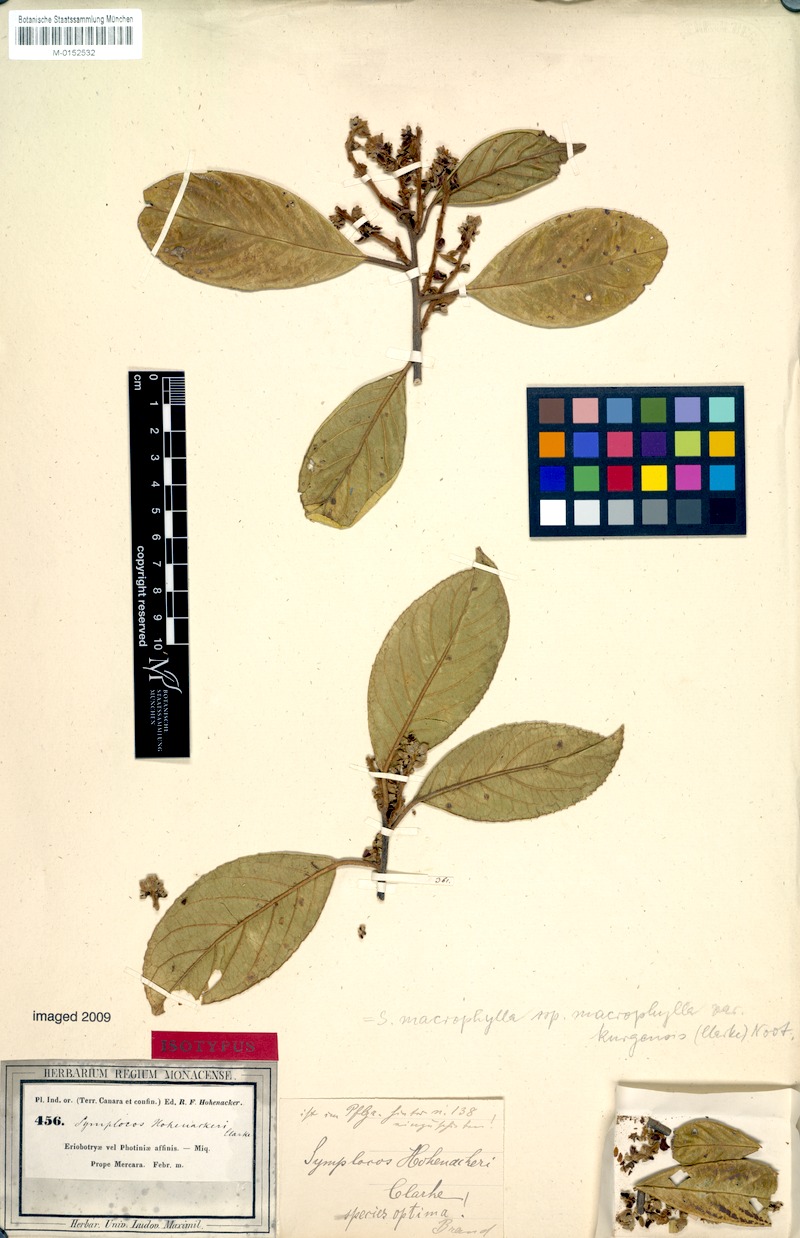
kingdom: Plantae
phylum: Tracheophyta
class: Magnoliopsida
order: Ericales
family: Symplocaceae
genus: Symplocos
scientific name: Symplocos kurgensis
